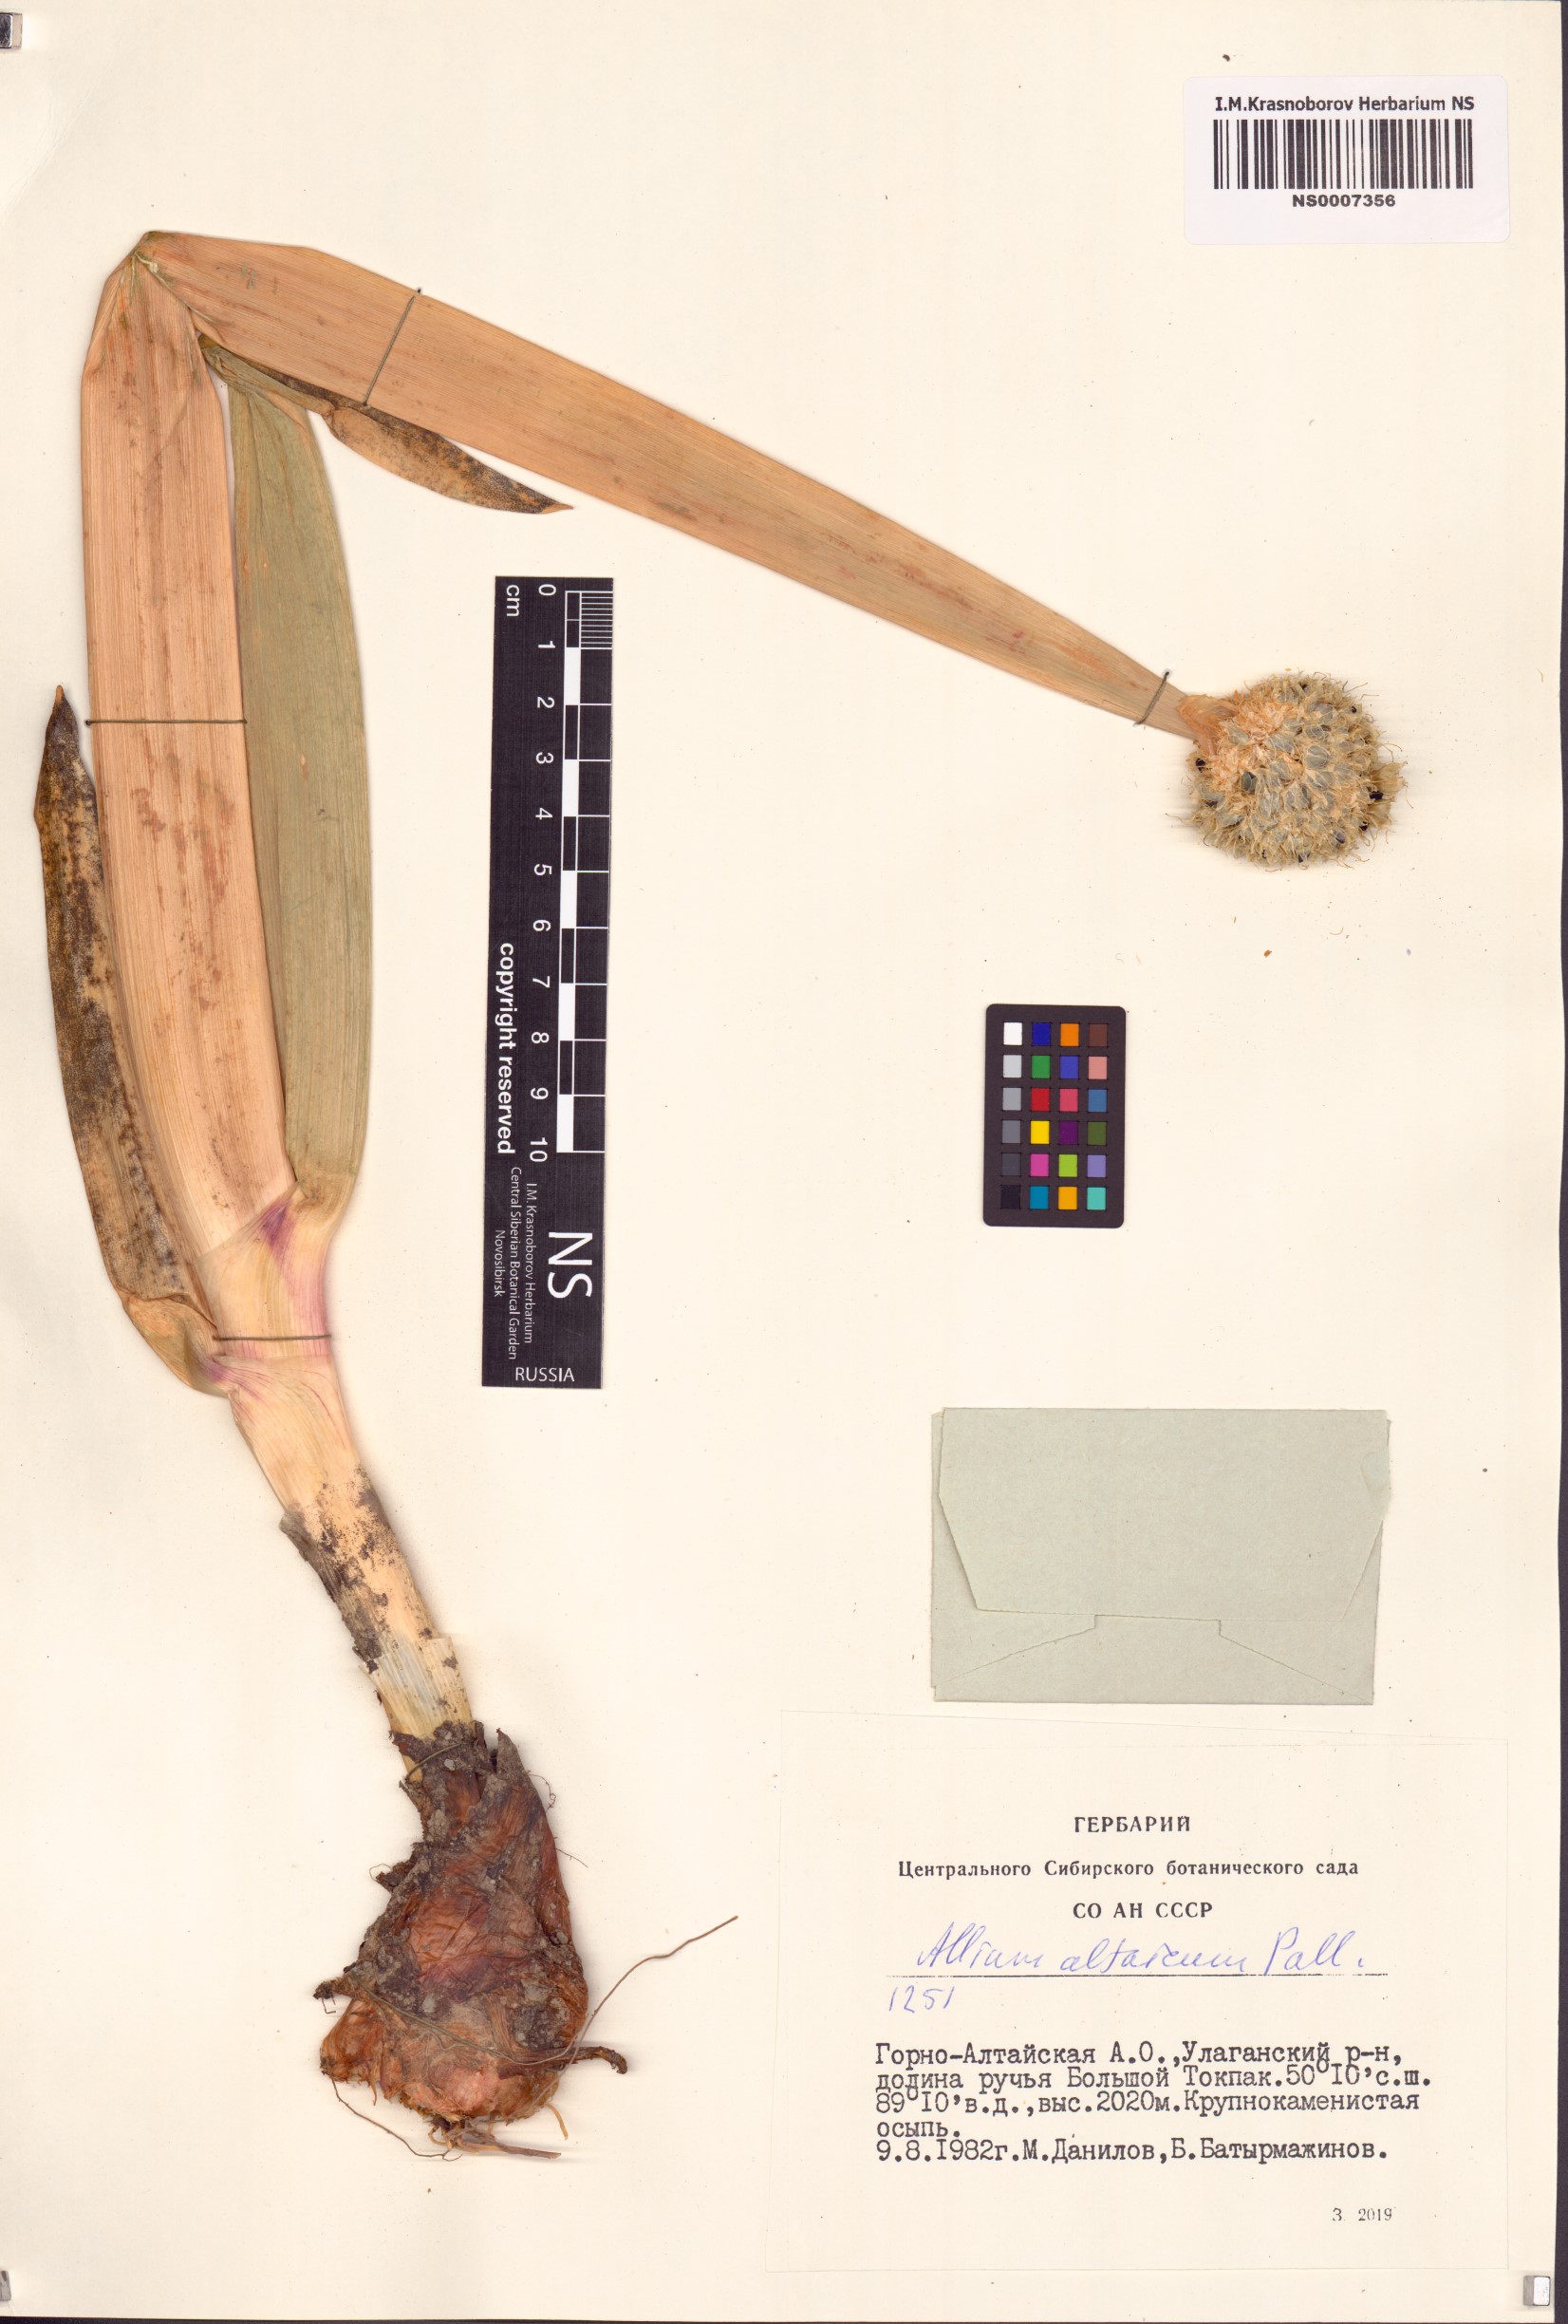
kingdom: Plantae
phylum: Tracheophyta
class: Liliopsida
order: Asparagales
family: Amaryllidaceae
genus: Allium
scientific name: Allium altaicum
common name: Altai onion
